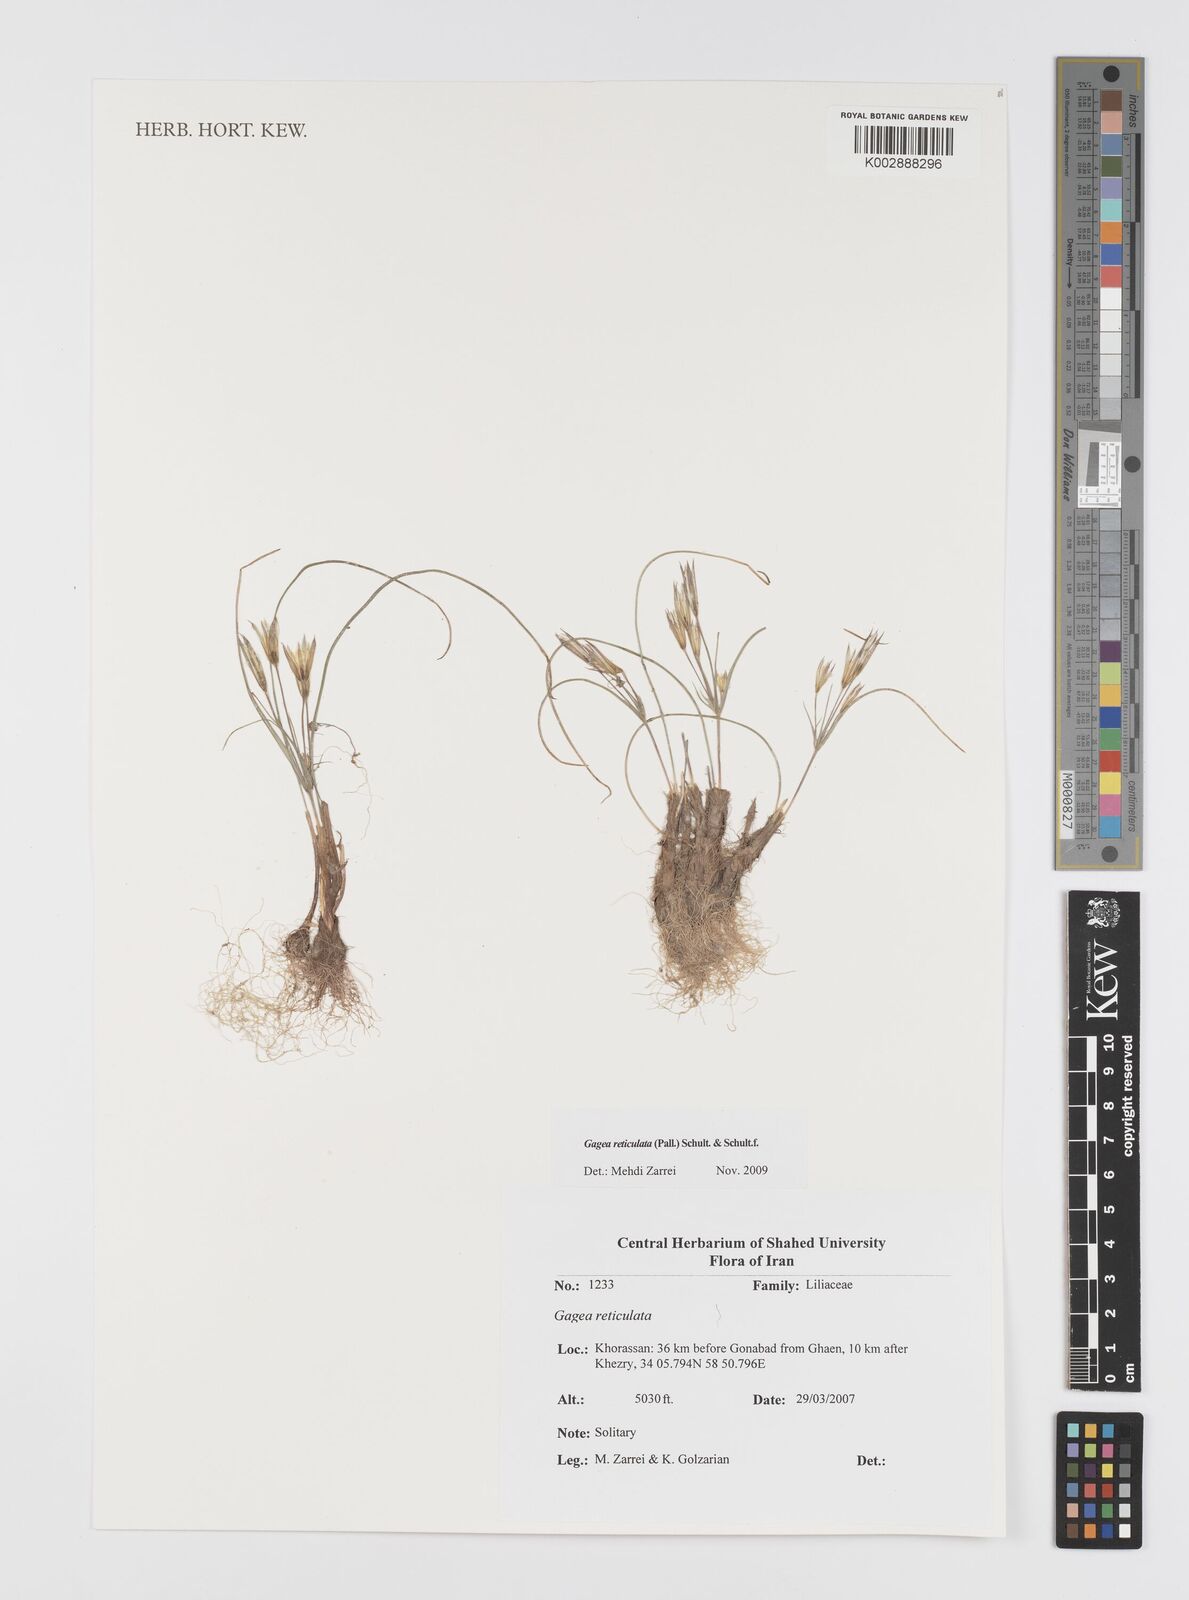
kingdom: Plantae
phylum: Tracheophyta
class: Liliopsida
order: Liliales
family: Liliaceae
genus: Gagea
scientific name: Gagea reticulata
